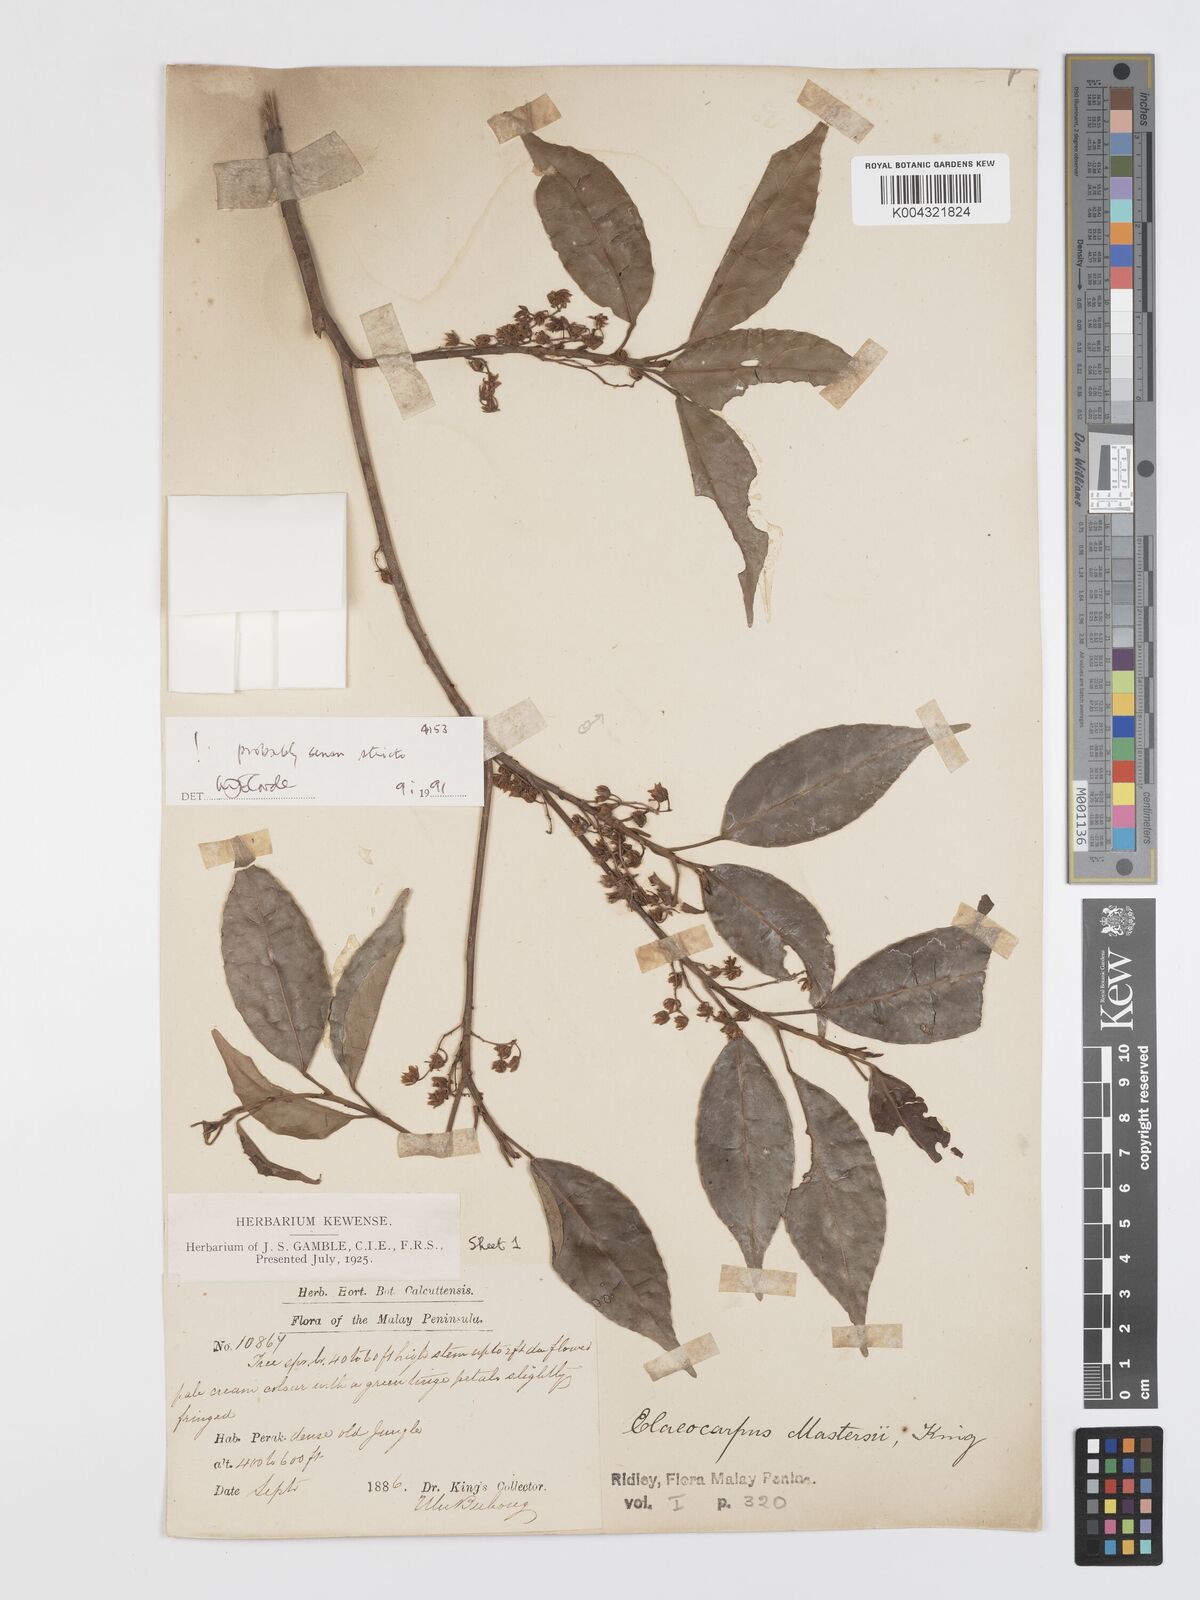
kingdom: Plantae
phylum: Tracheophyta
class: Magnoliopsida
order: Oxalidales
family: Elaeocarpaceae
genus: Elaeocarpus
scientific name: Elaeocarpus mastersii
